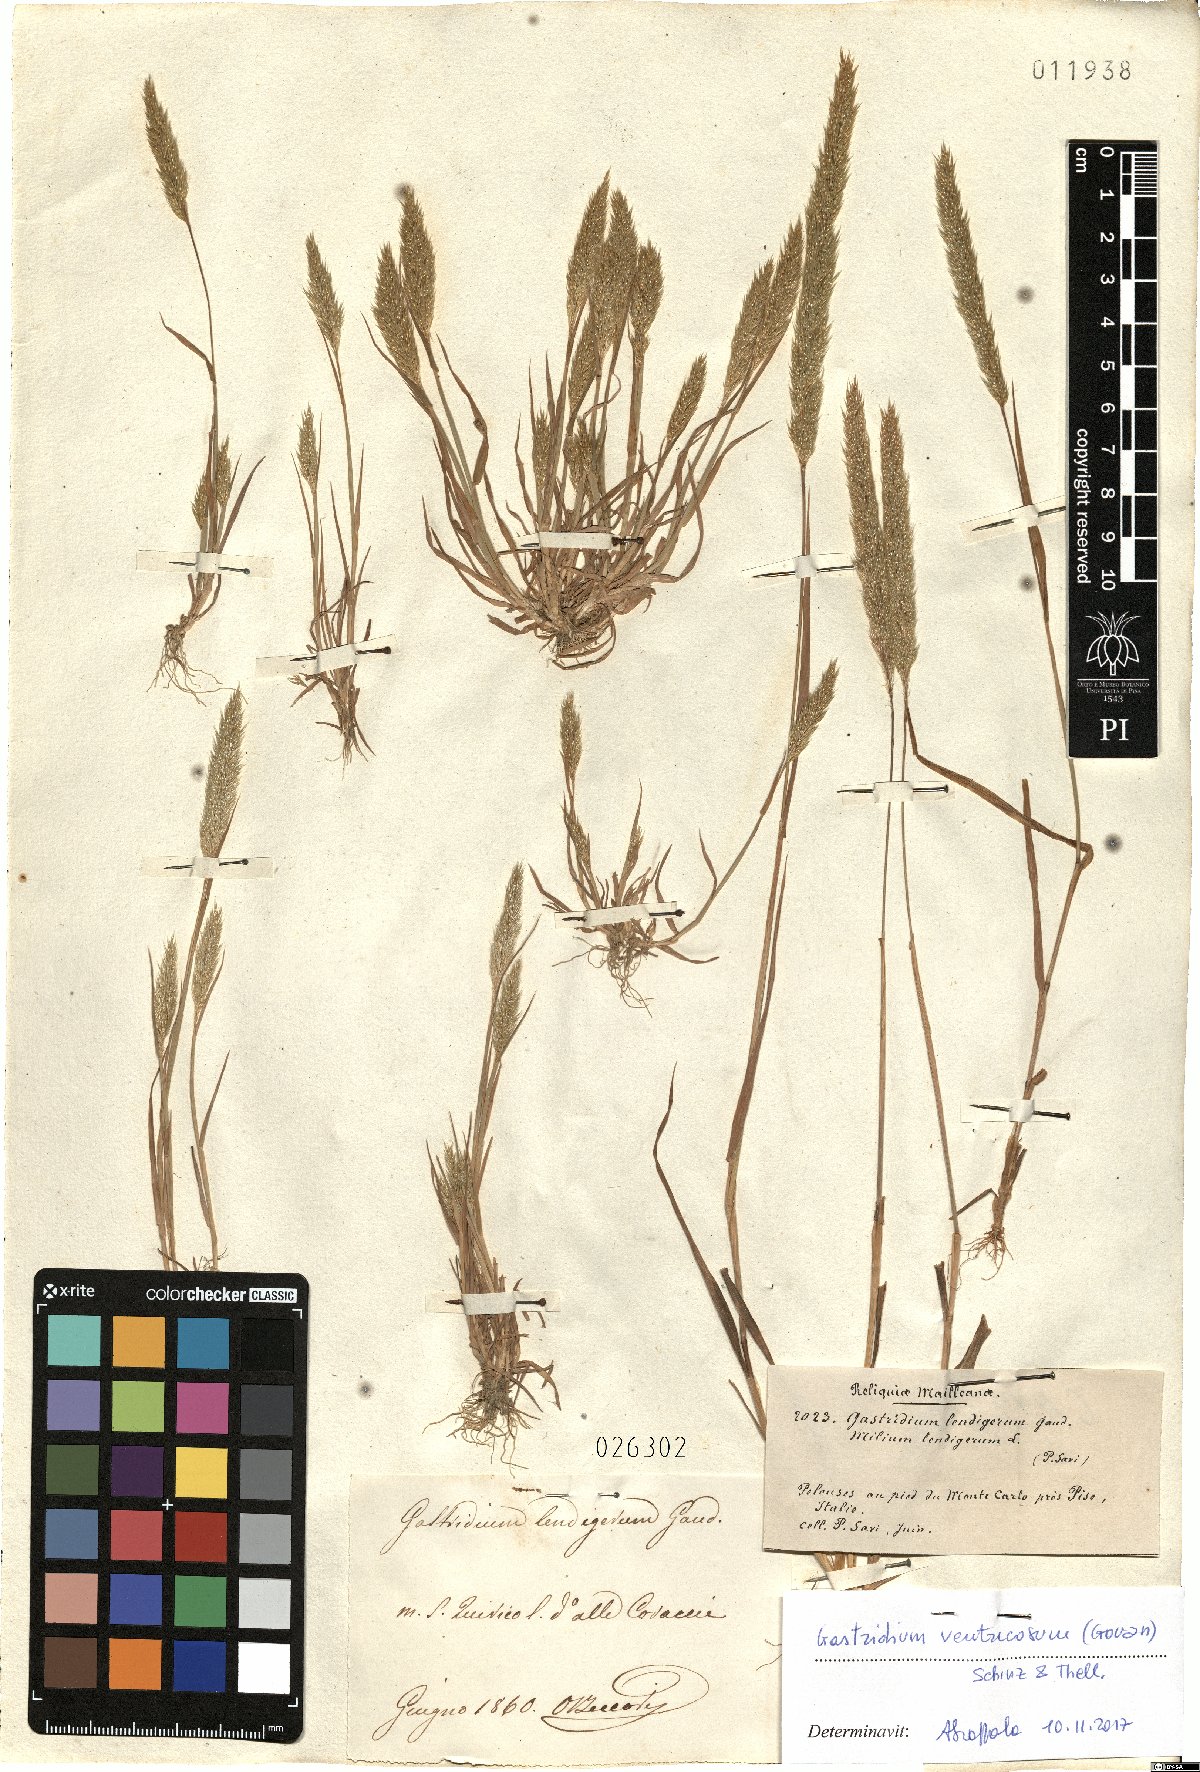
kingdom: Plantae
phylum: Tracheophyta
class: Liliopsida
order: Poales
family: Poaceae
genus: Gastridium
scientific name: Gastridium ventricosum
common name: Nit-grass
